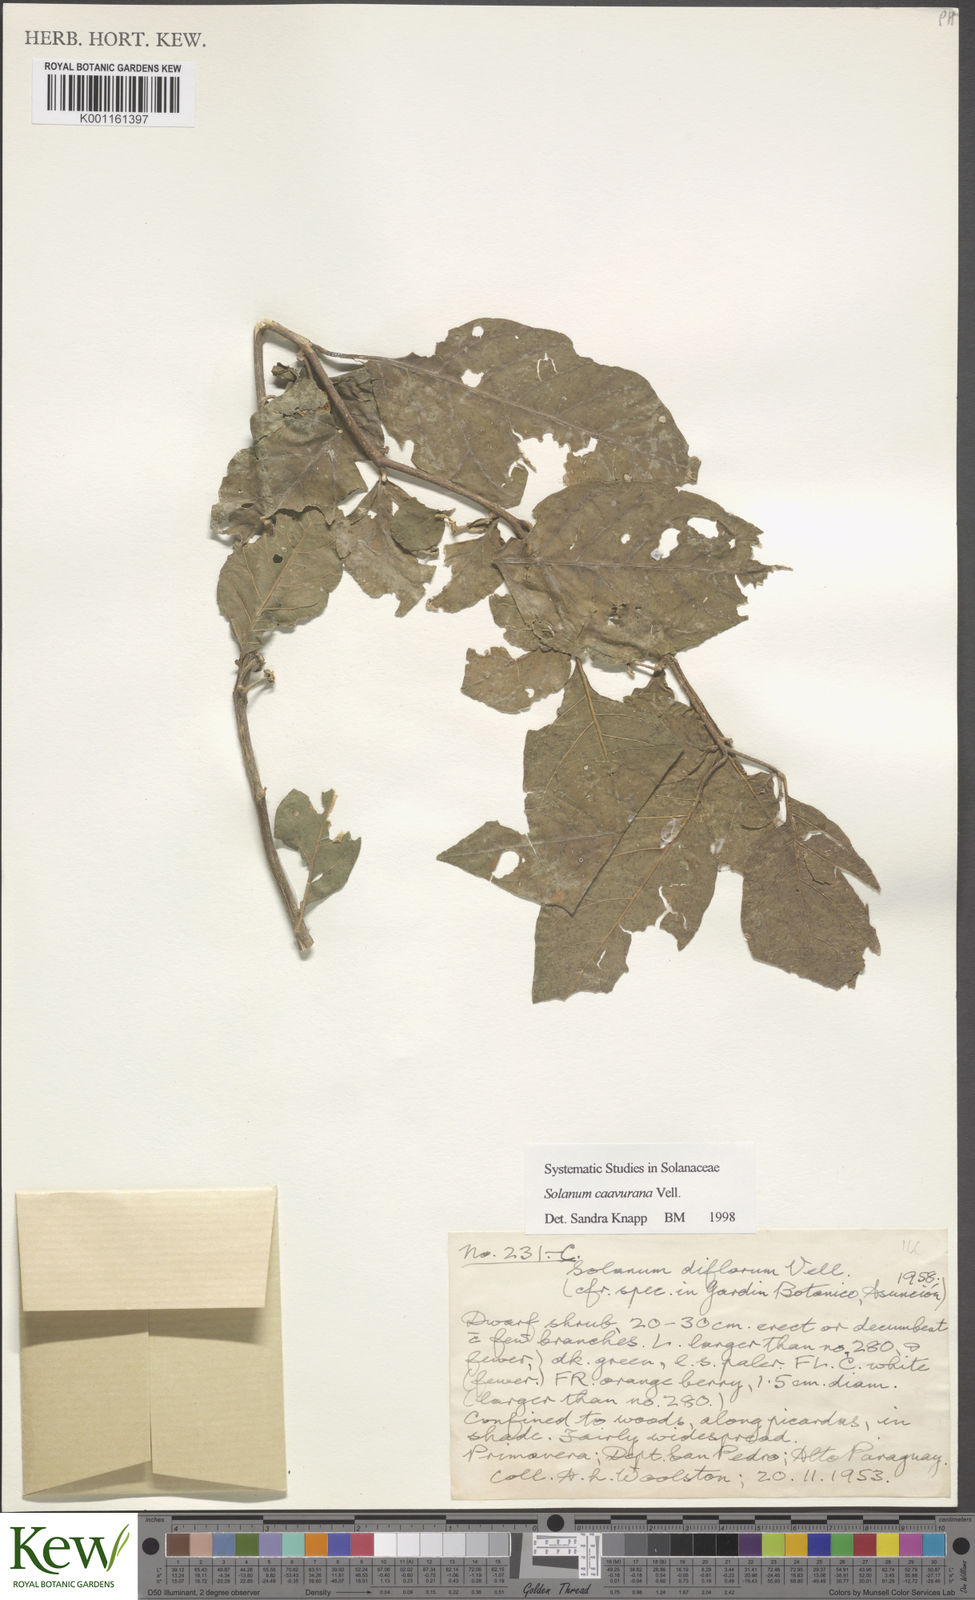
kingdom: Plantae
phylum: Tracheophyta
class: Magnoliopsida
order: Solanales
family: Solanaceae
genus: Solanum
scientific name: Solanum caavurana
